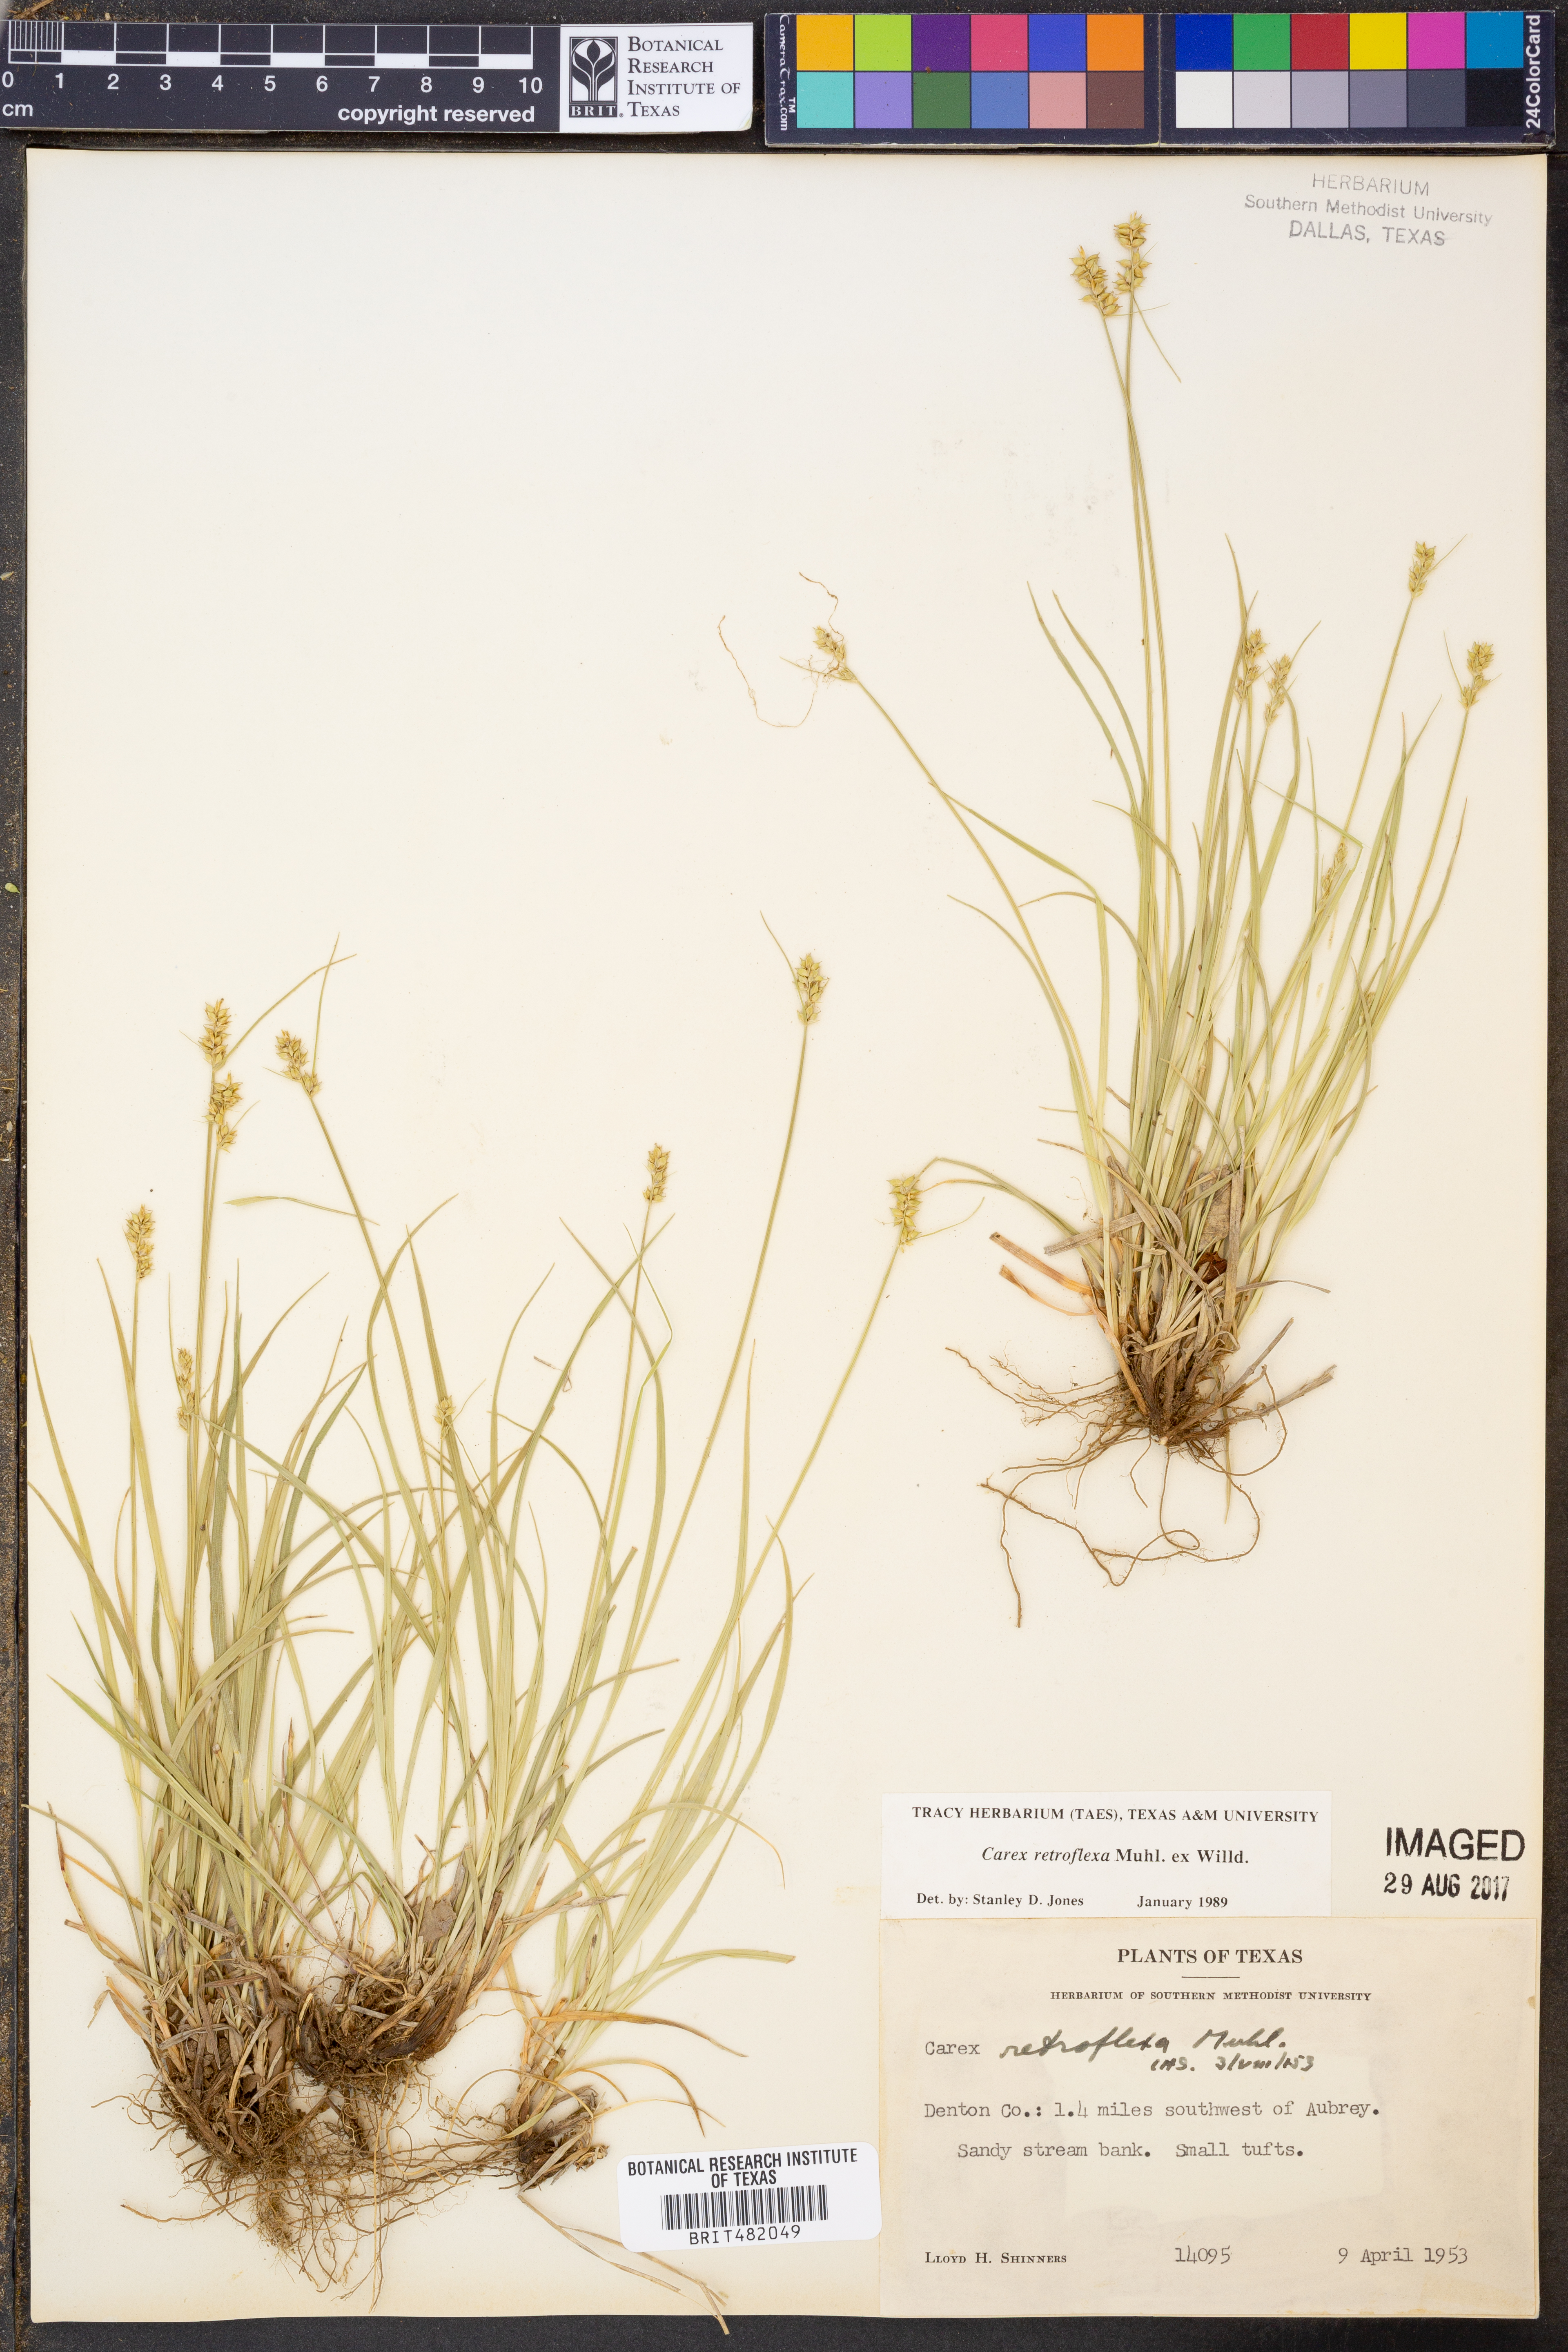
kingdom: Plantae
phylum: Tracheophyta
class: Liliopsida
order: Poales
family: Cyperaceae
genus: Carex
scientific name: Carex retroflexa
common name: Reflexed sedge
